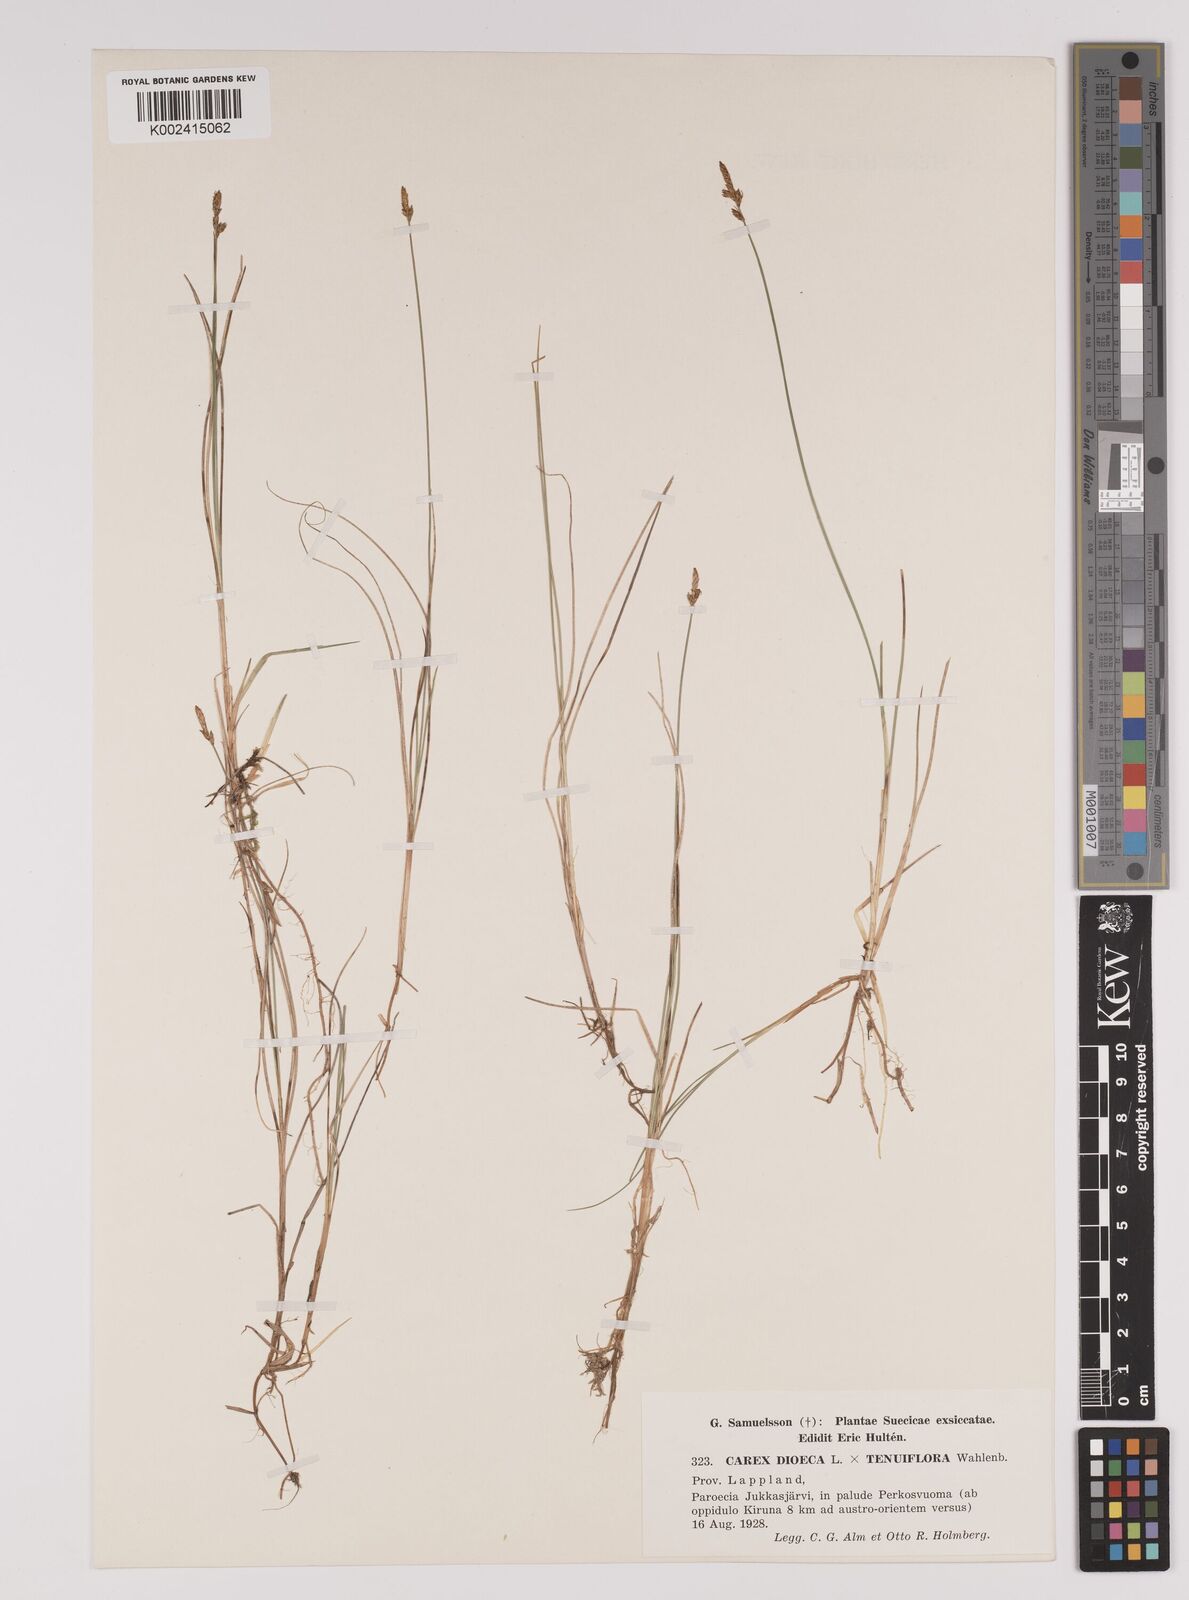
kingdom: Plantae
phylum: Tracheophyta
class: Liliopsida
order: Poales
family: Cyperaceae
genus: Carex
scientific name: Carex dioica
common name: Dioecious sedge
